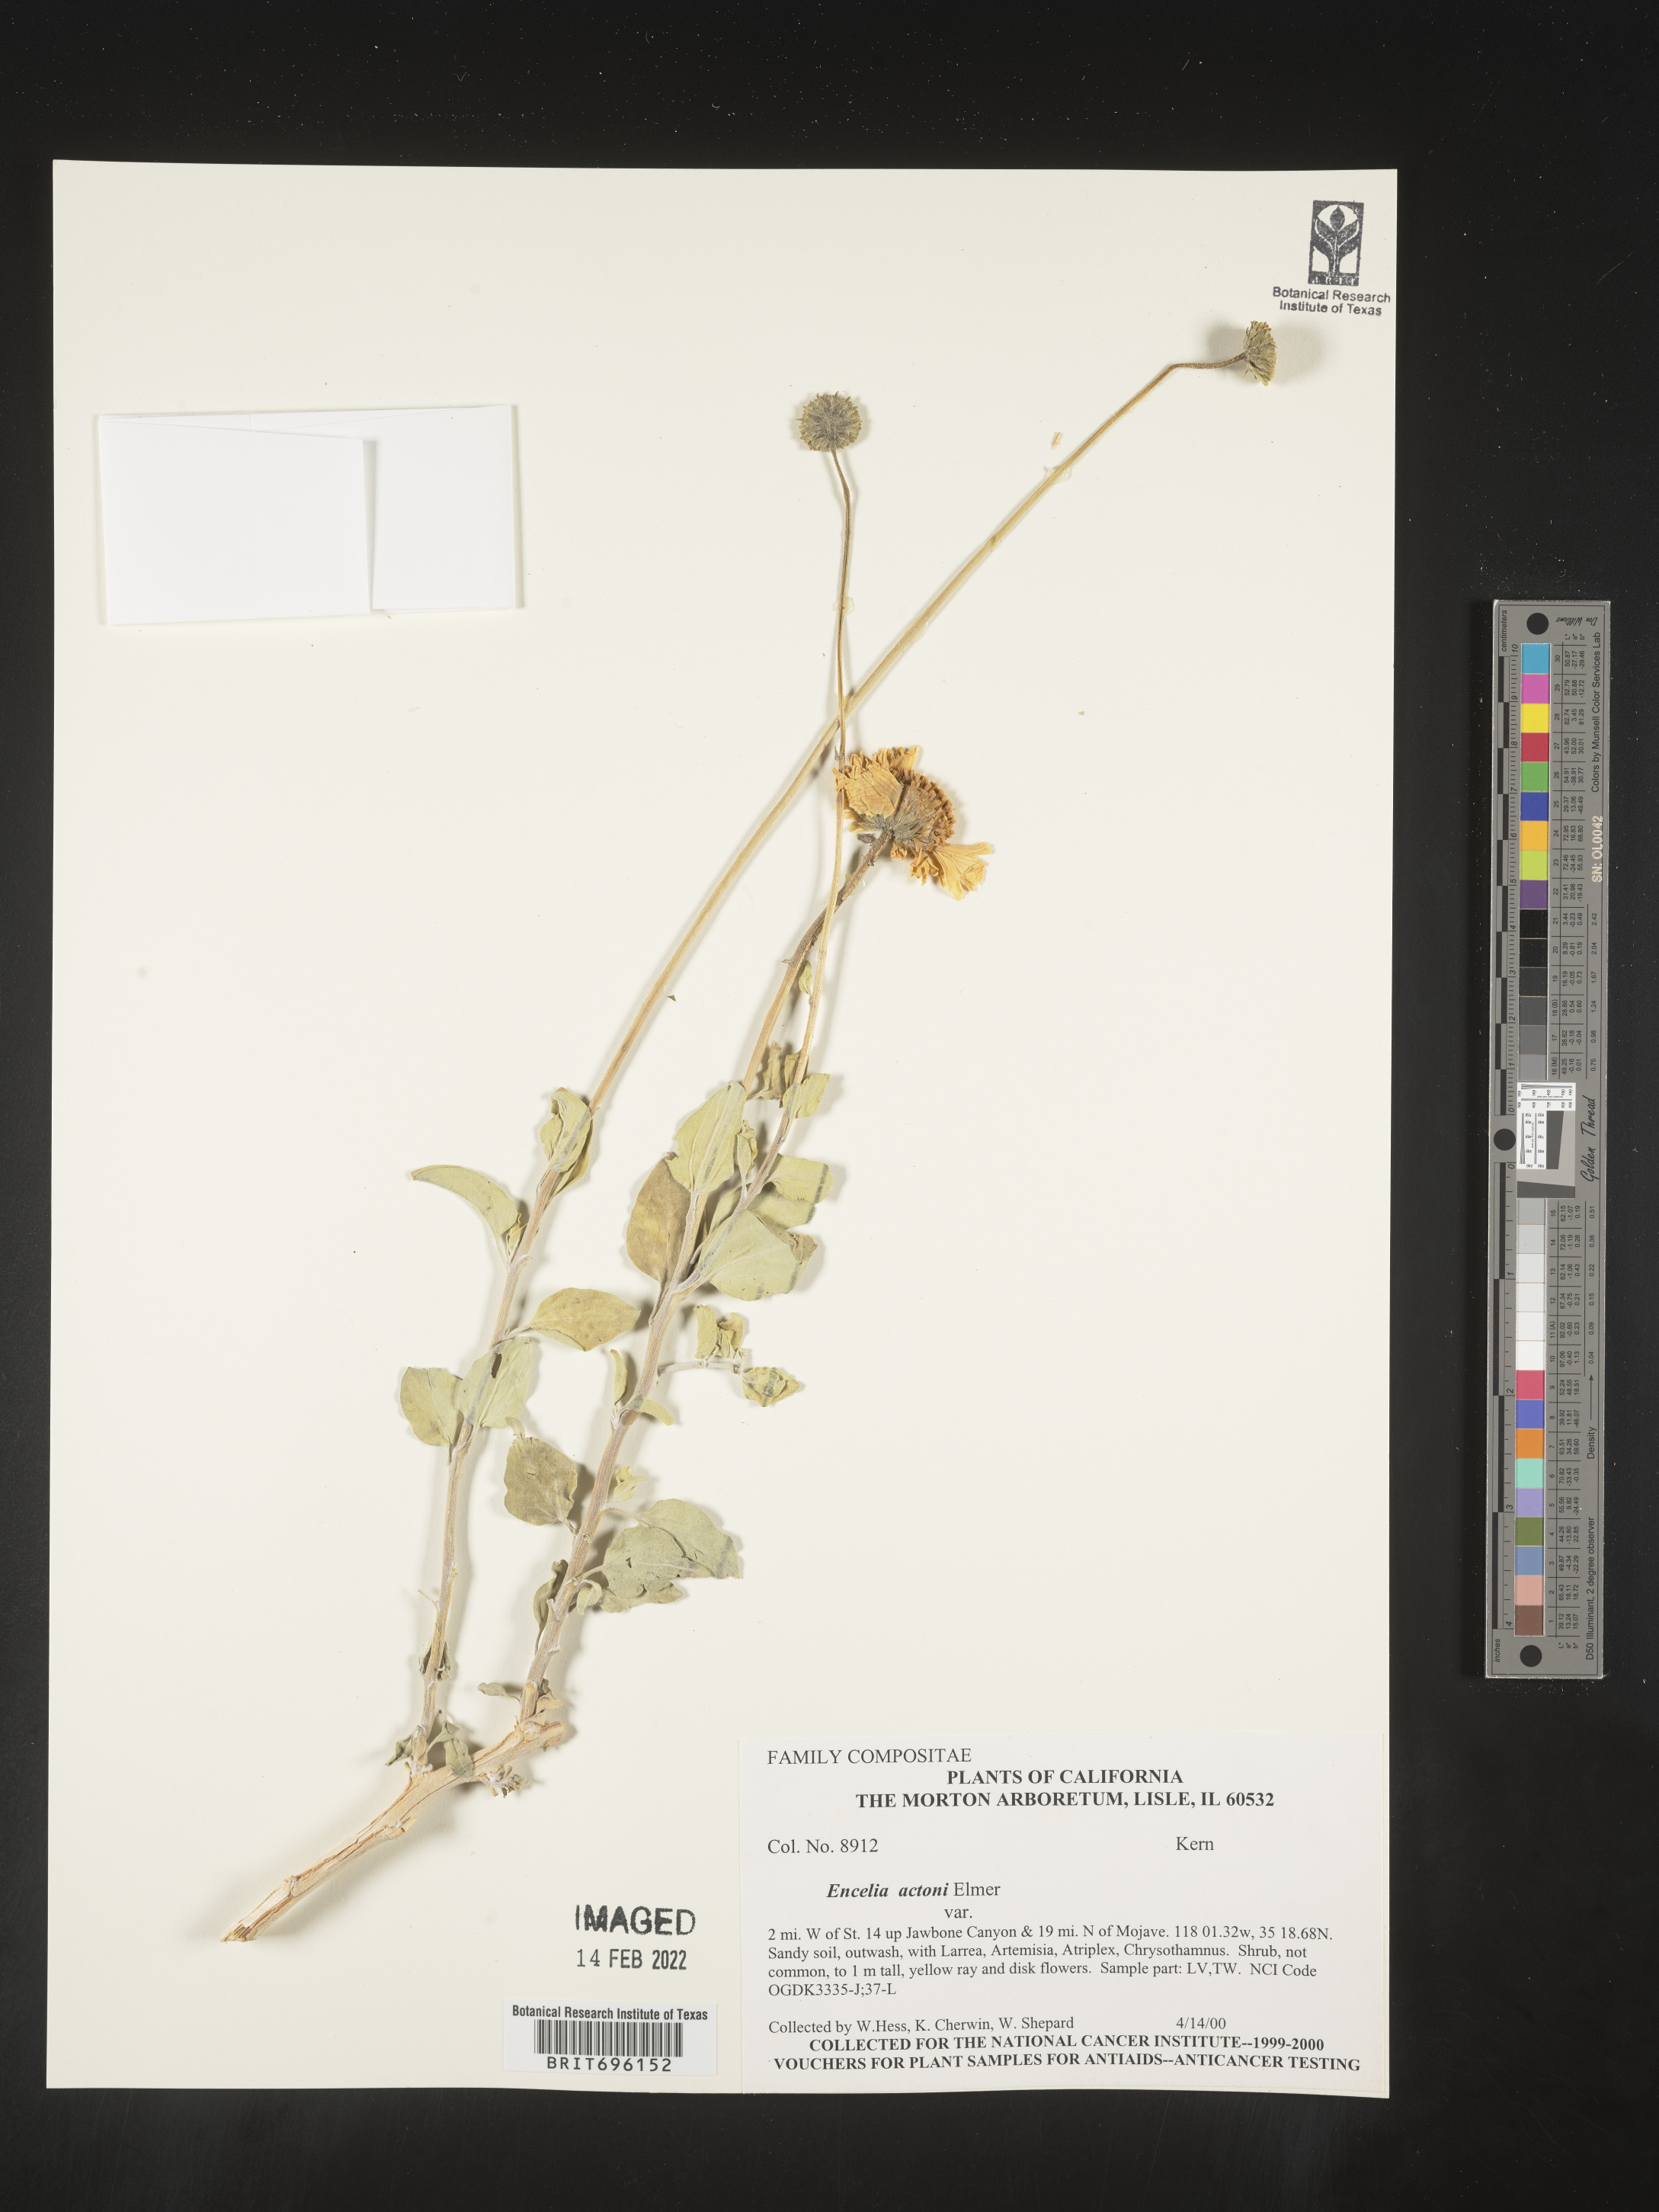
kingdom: Plantae
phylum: Tracheophyta
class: Magnoliopsida
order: Asterales
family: Asteraceae
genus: Encelia
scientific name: Encelia actoni
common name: Acton encelia
